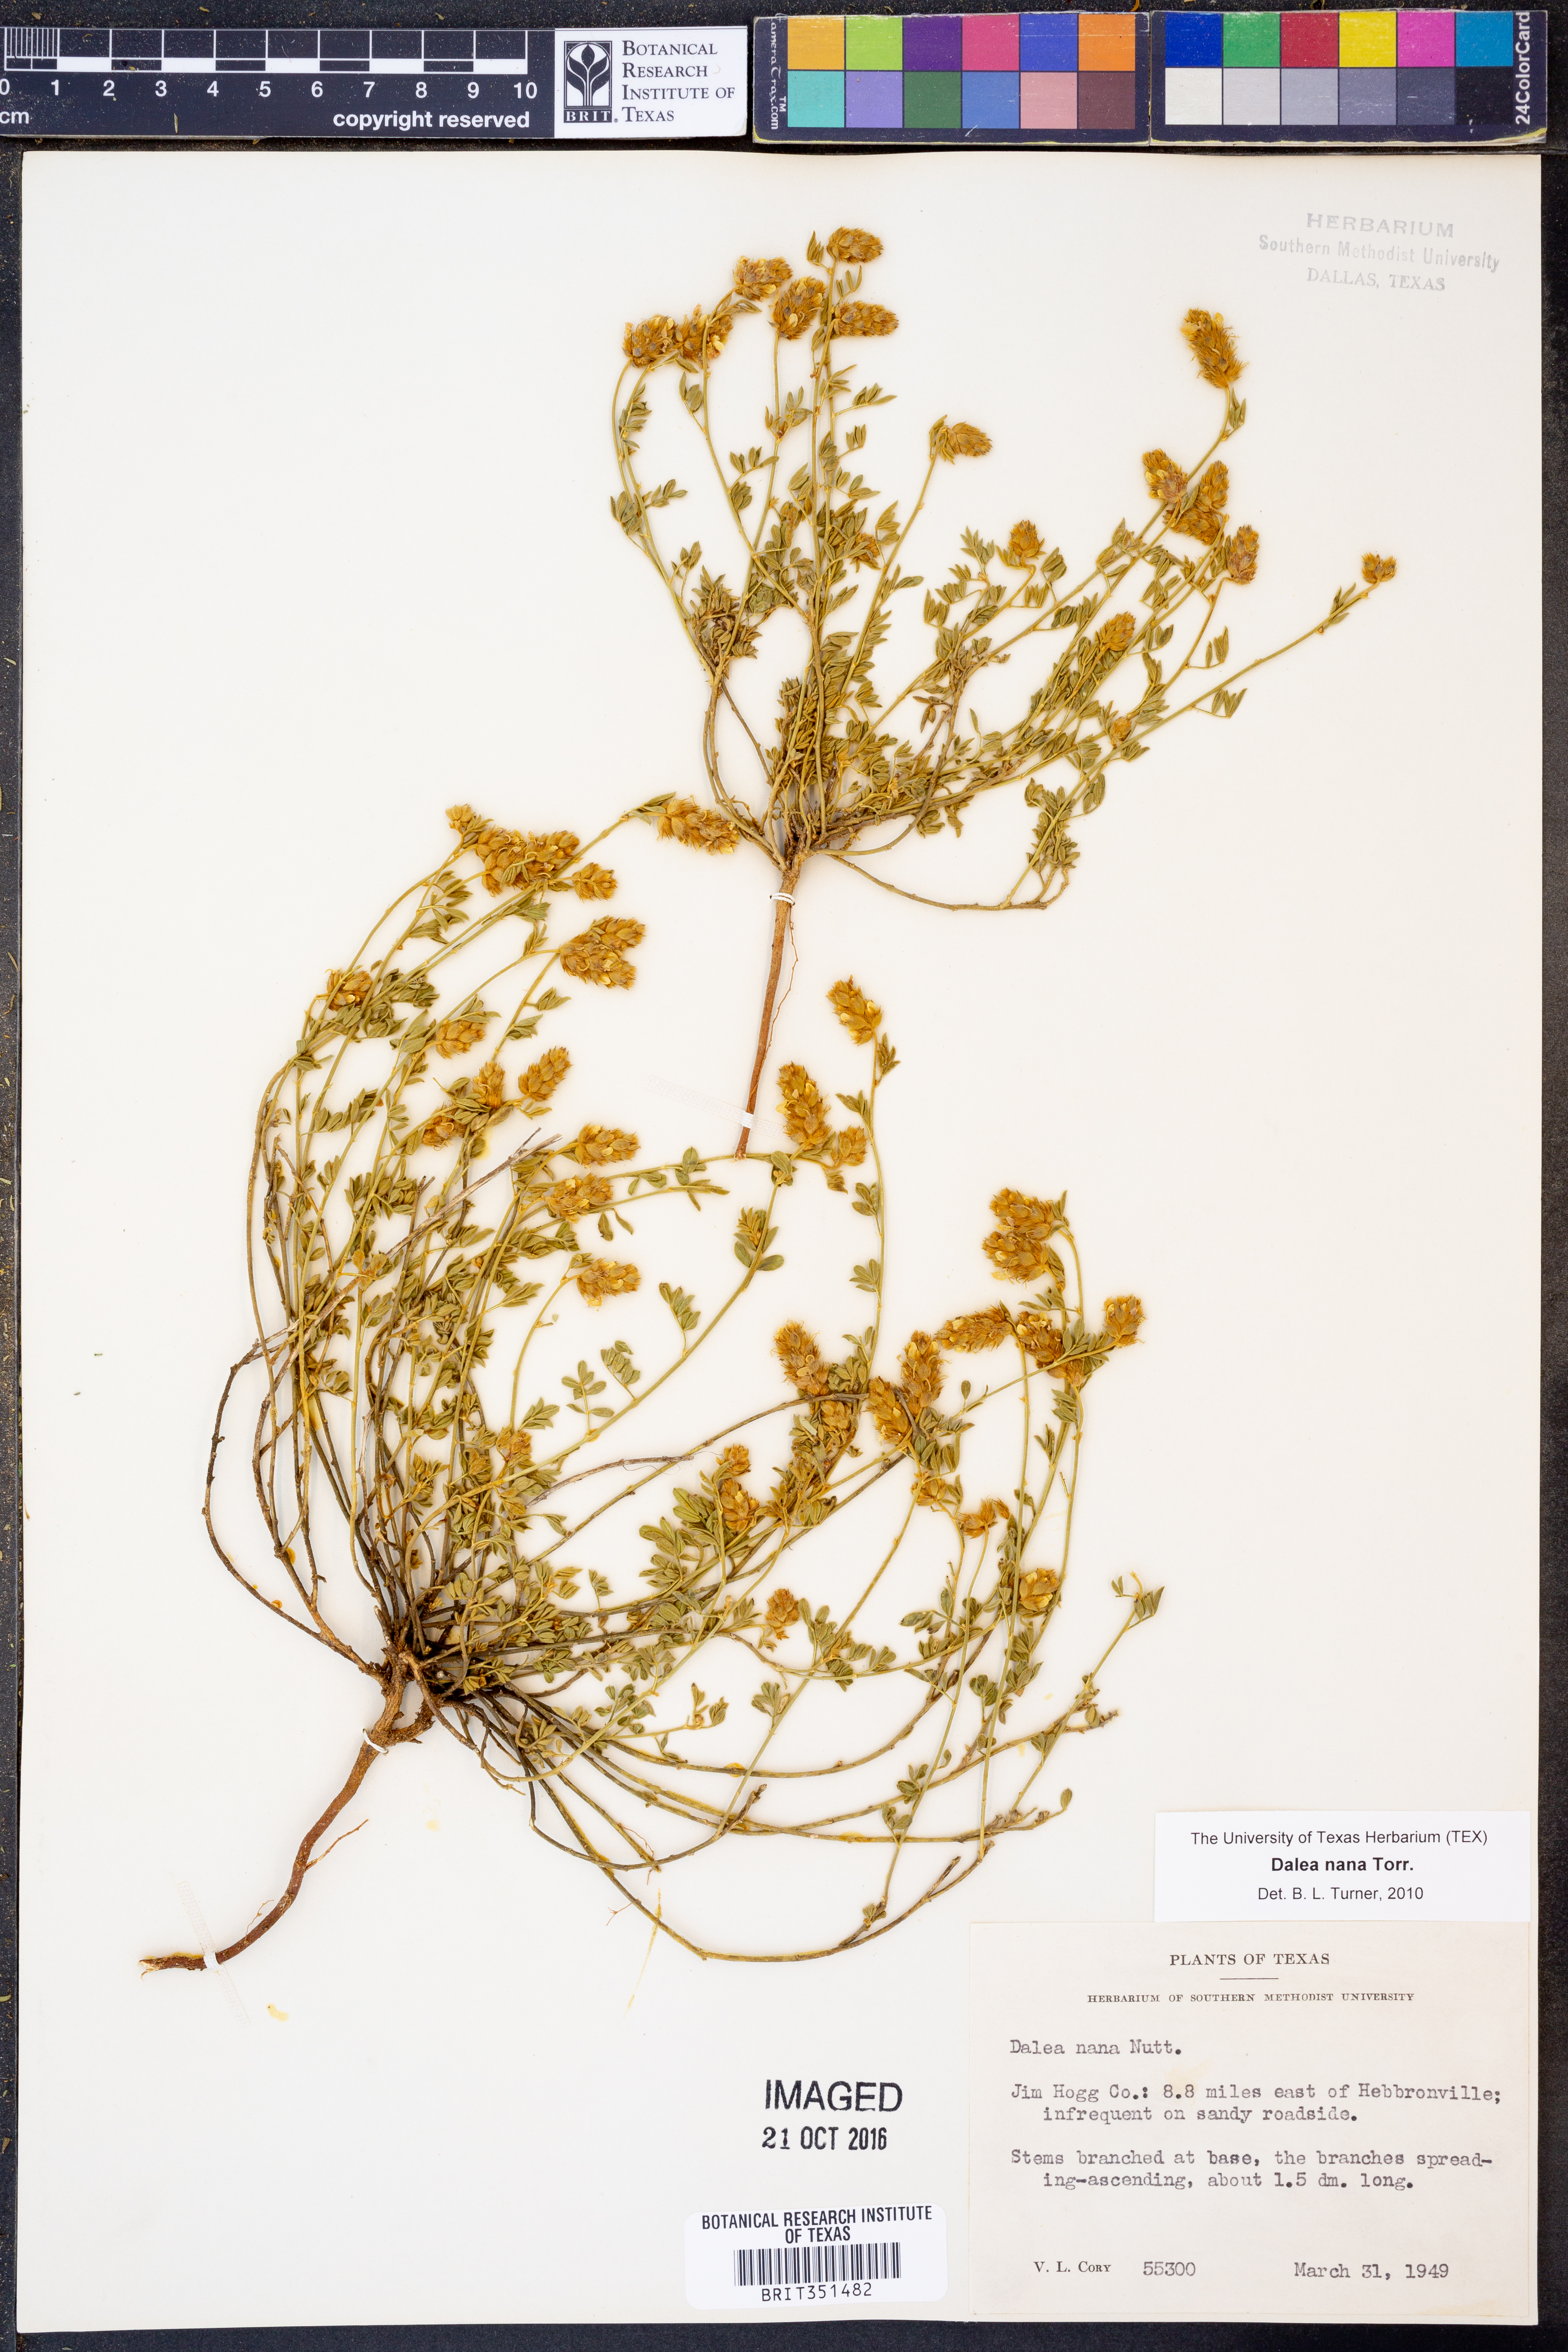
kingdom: Plantae
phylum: Tracheophyta
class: Magnoliopsida
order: Fabales
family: Fabaceae
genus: Dalea
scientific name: Dalea nana
